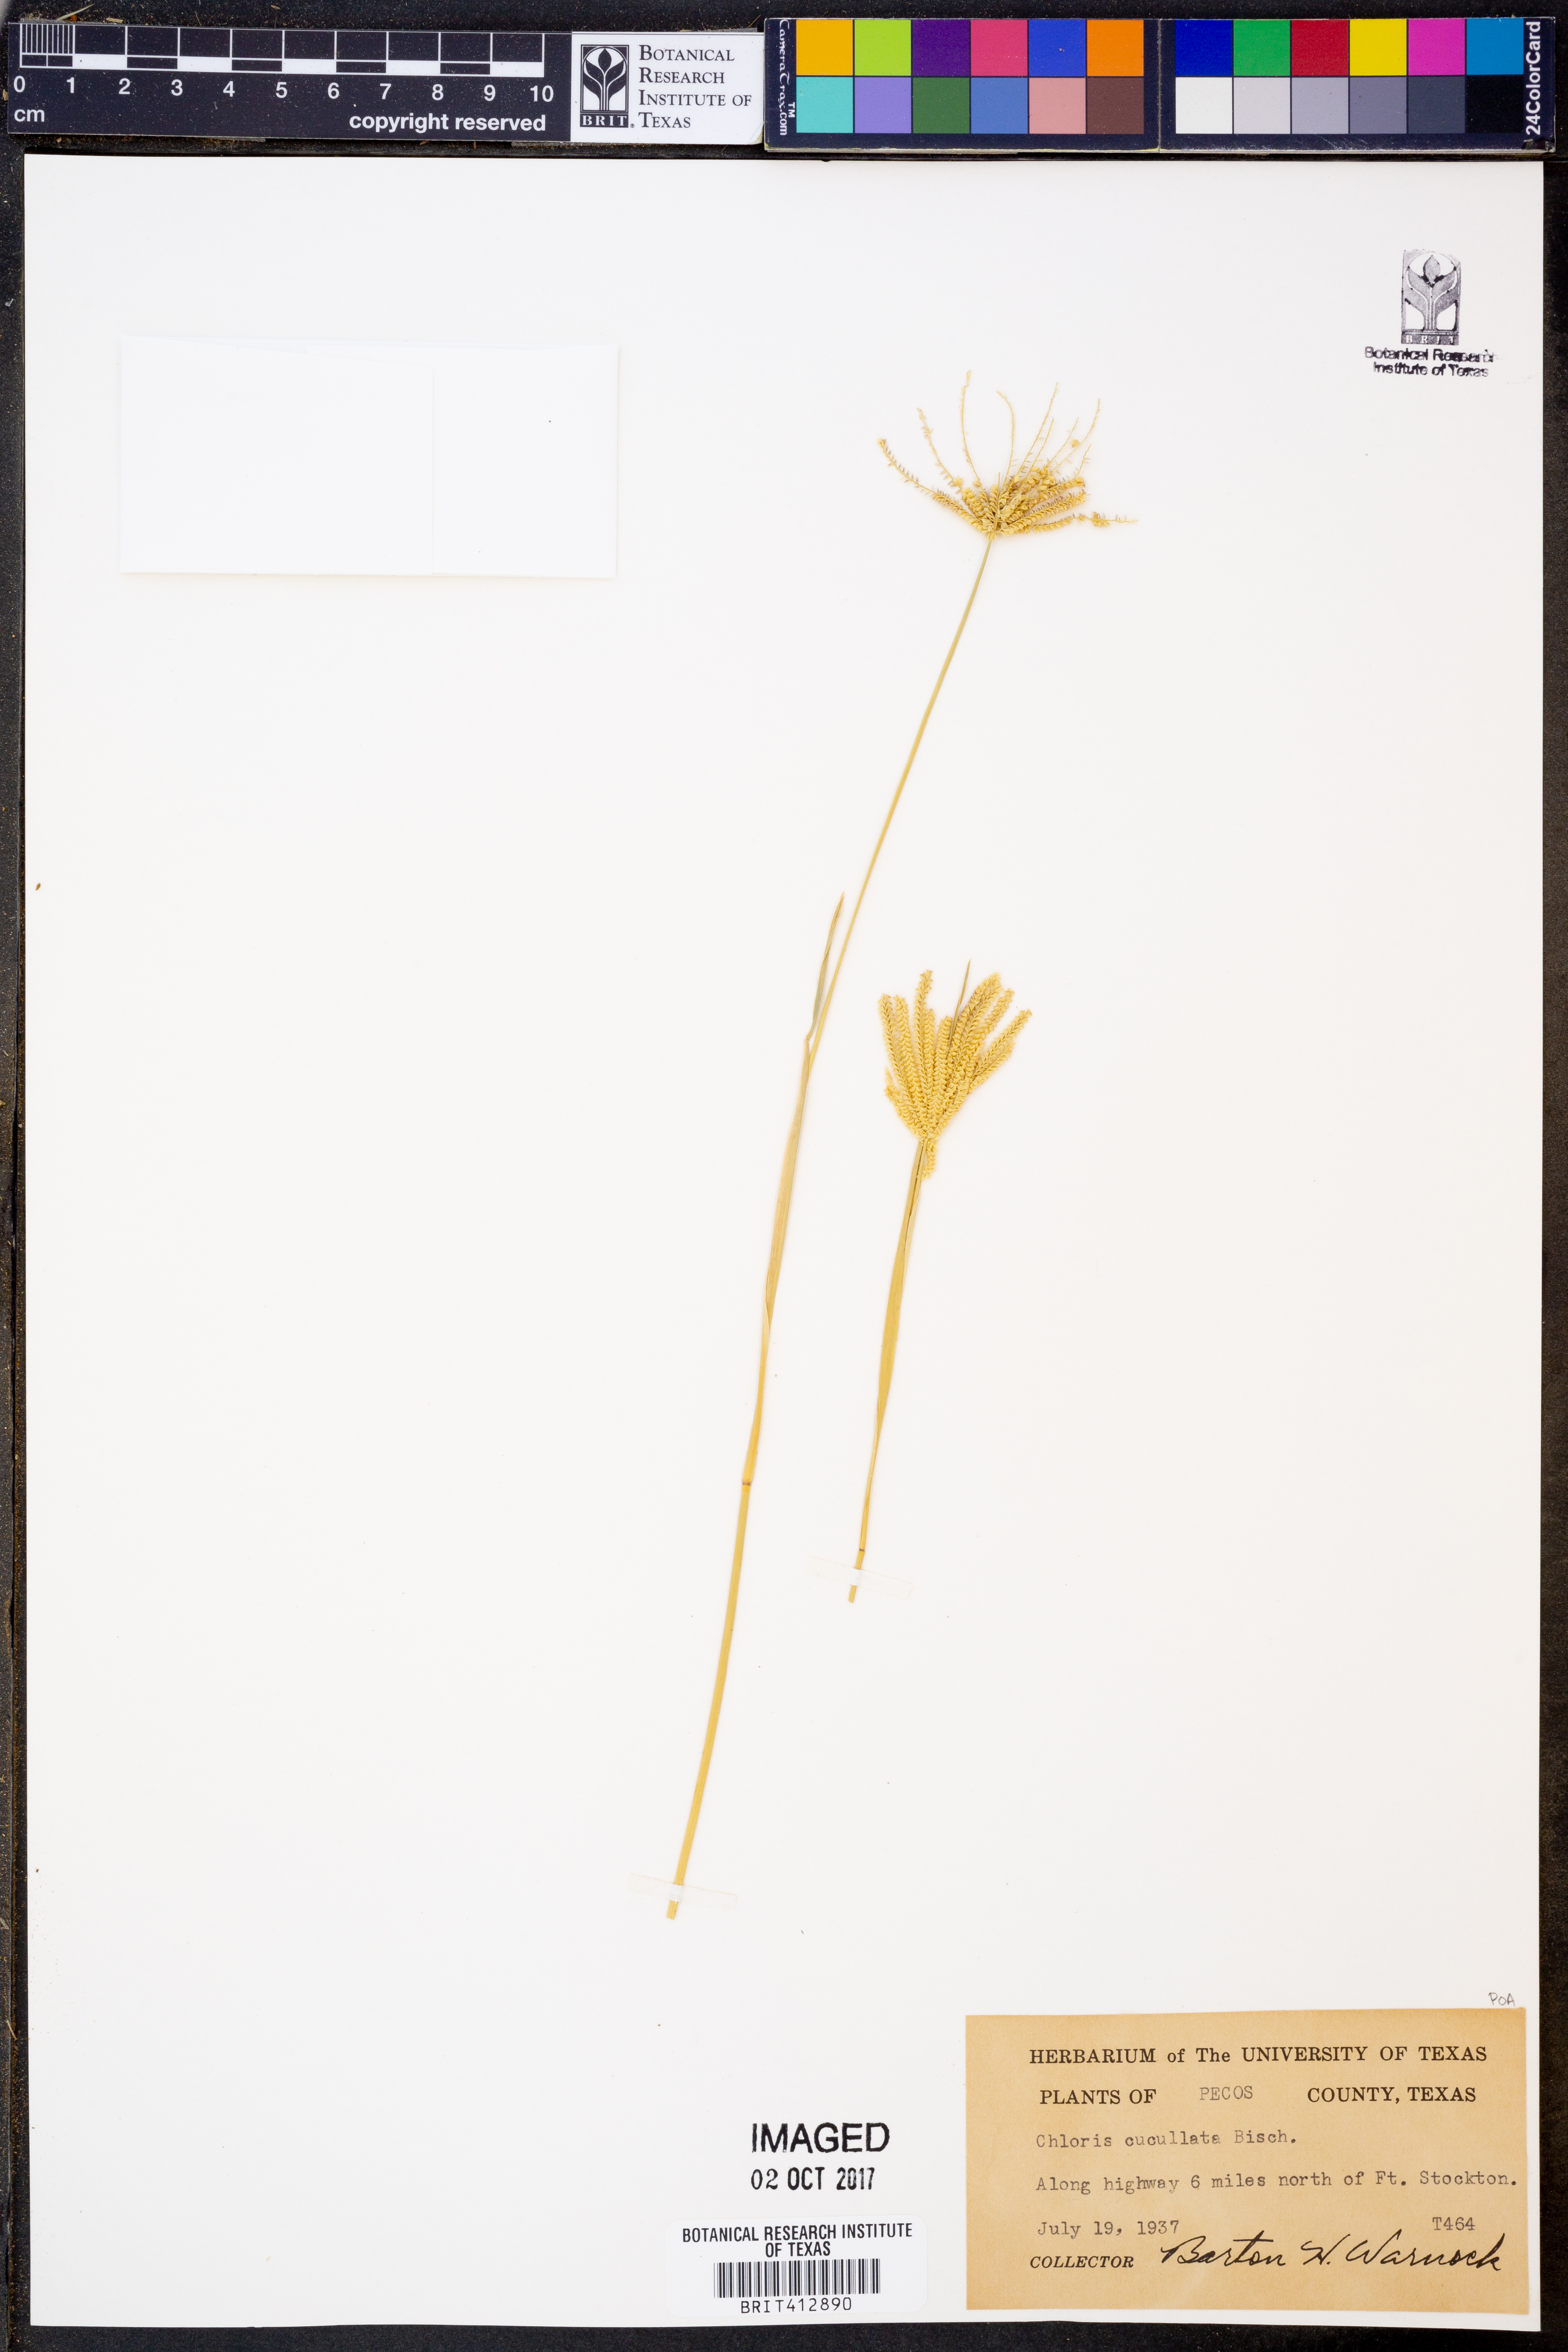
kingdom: Plantae
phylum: Tracheophyta
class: Liliopsida
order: Poales
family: Poaceae
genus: Chloris
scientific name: Chloris cucullata
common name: Hooded windmill grass
